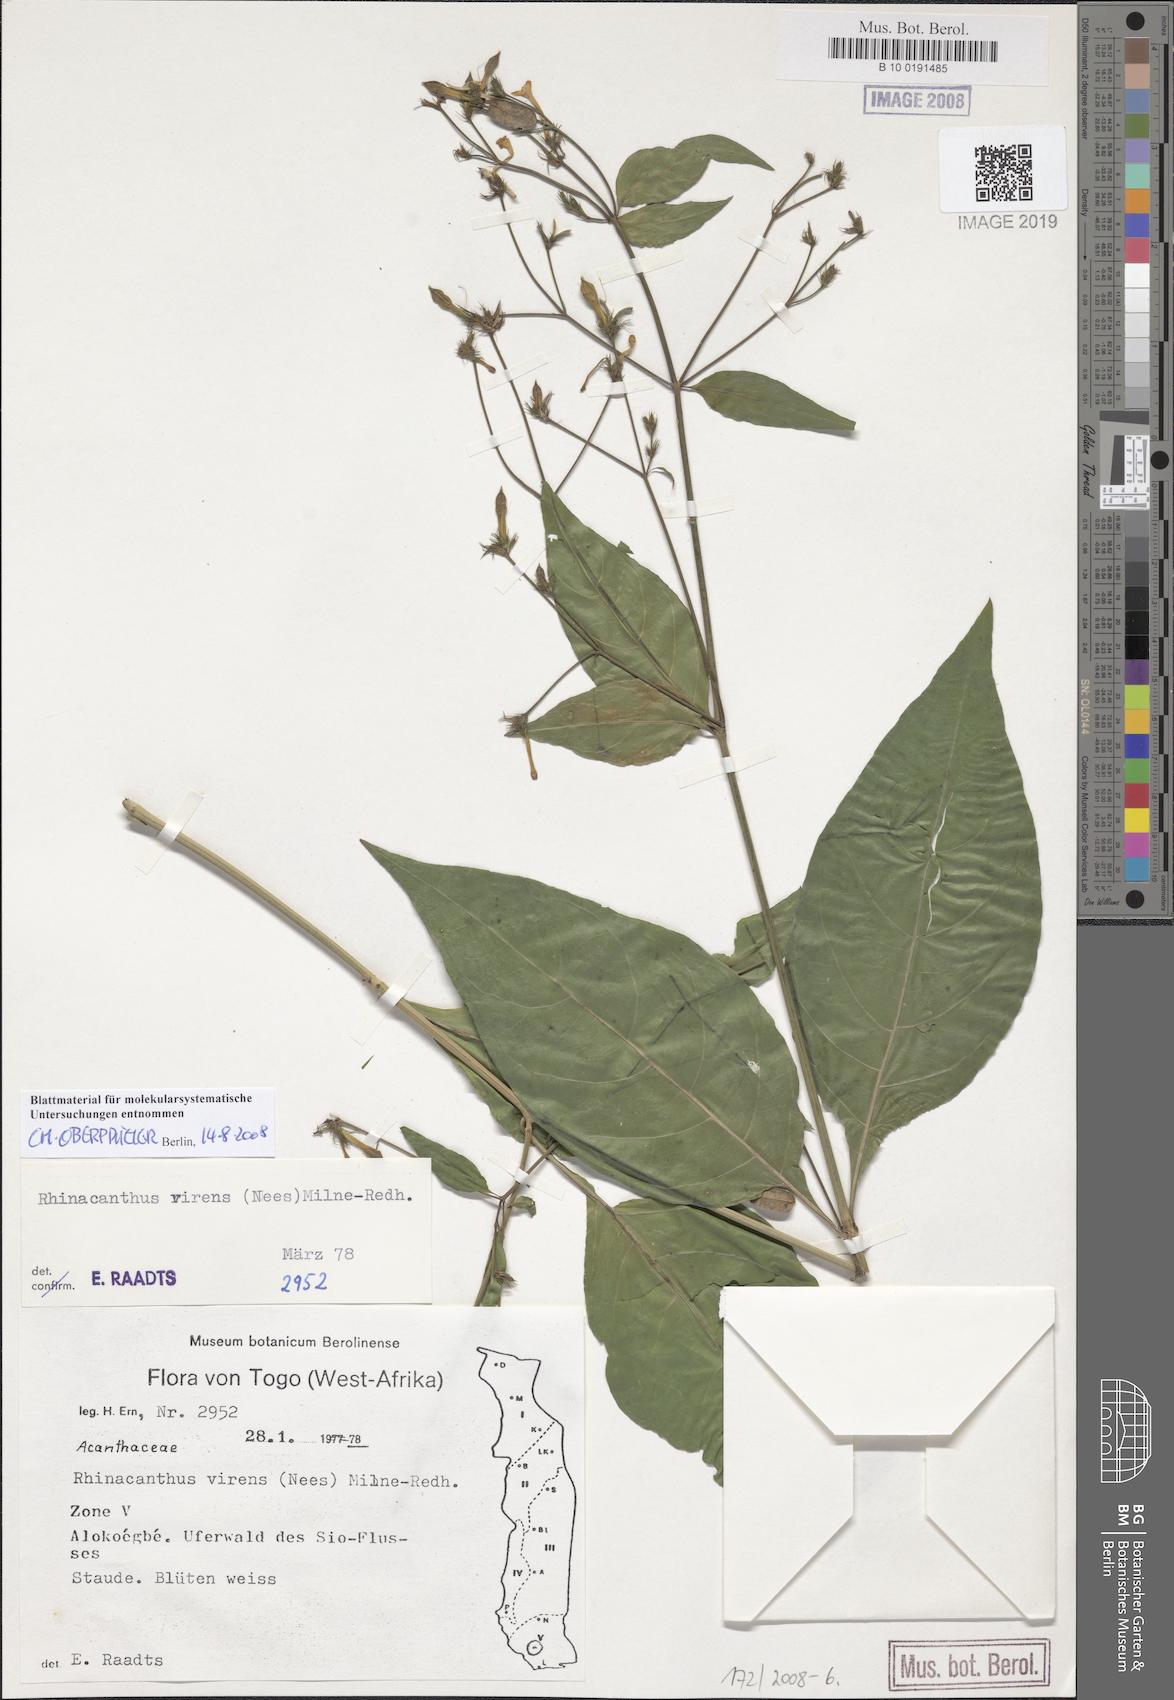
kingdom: Plantae
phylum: Tracheophyta
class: Magnoliopsida
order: Lamiales
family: Acanthaceae
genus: Rhinacanthus
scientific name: Rhinacanthus virens
